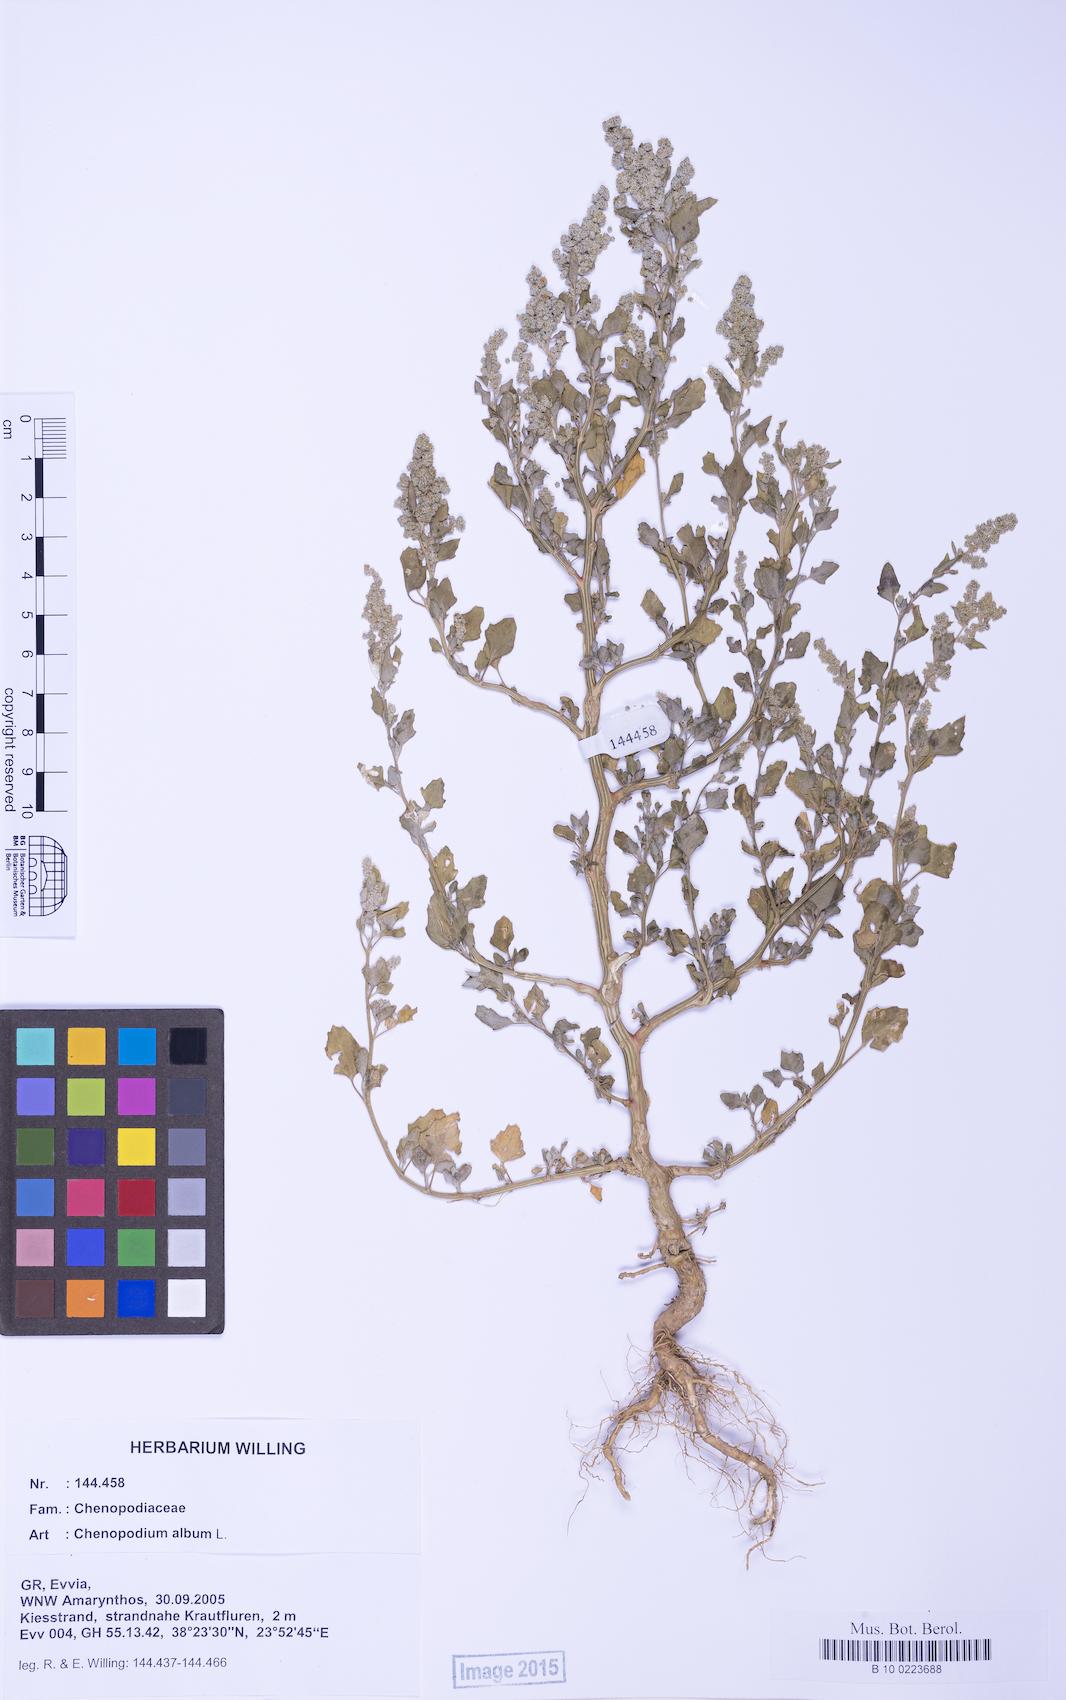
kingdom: Plantae
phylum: Tracheophyta
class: Magnoliopsida
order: Caryophyllales
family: Amaranthaceae
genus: Chenopodium
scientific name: Chenopodium album
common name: Fat-hen
